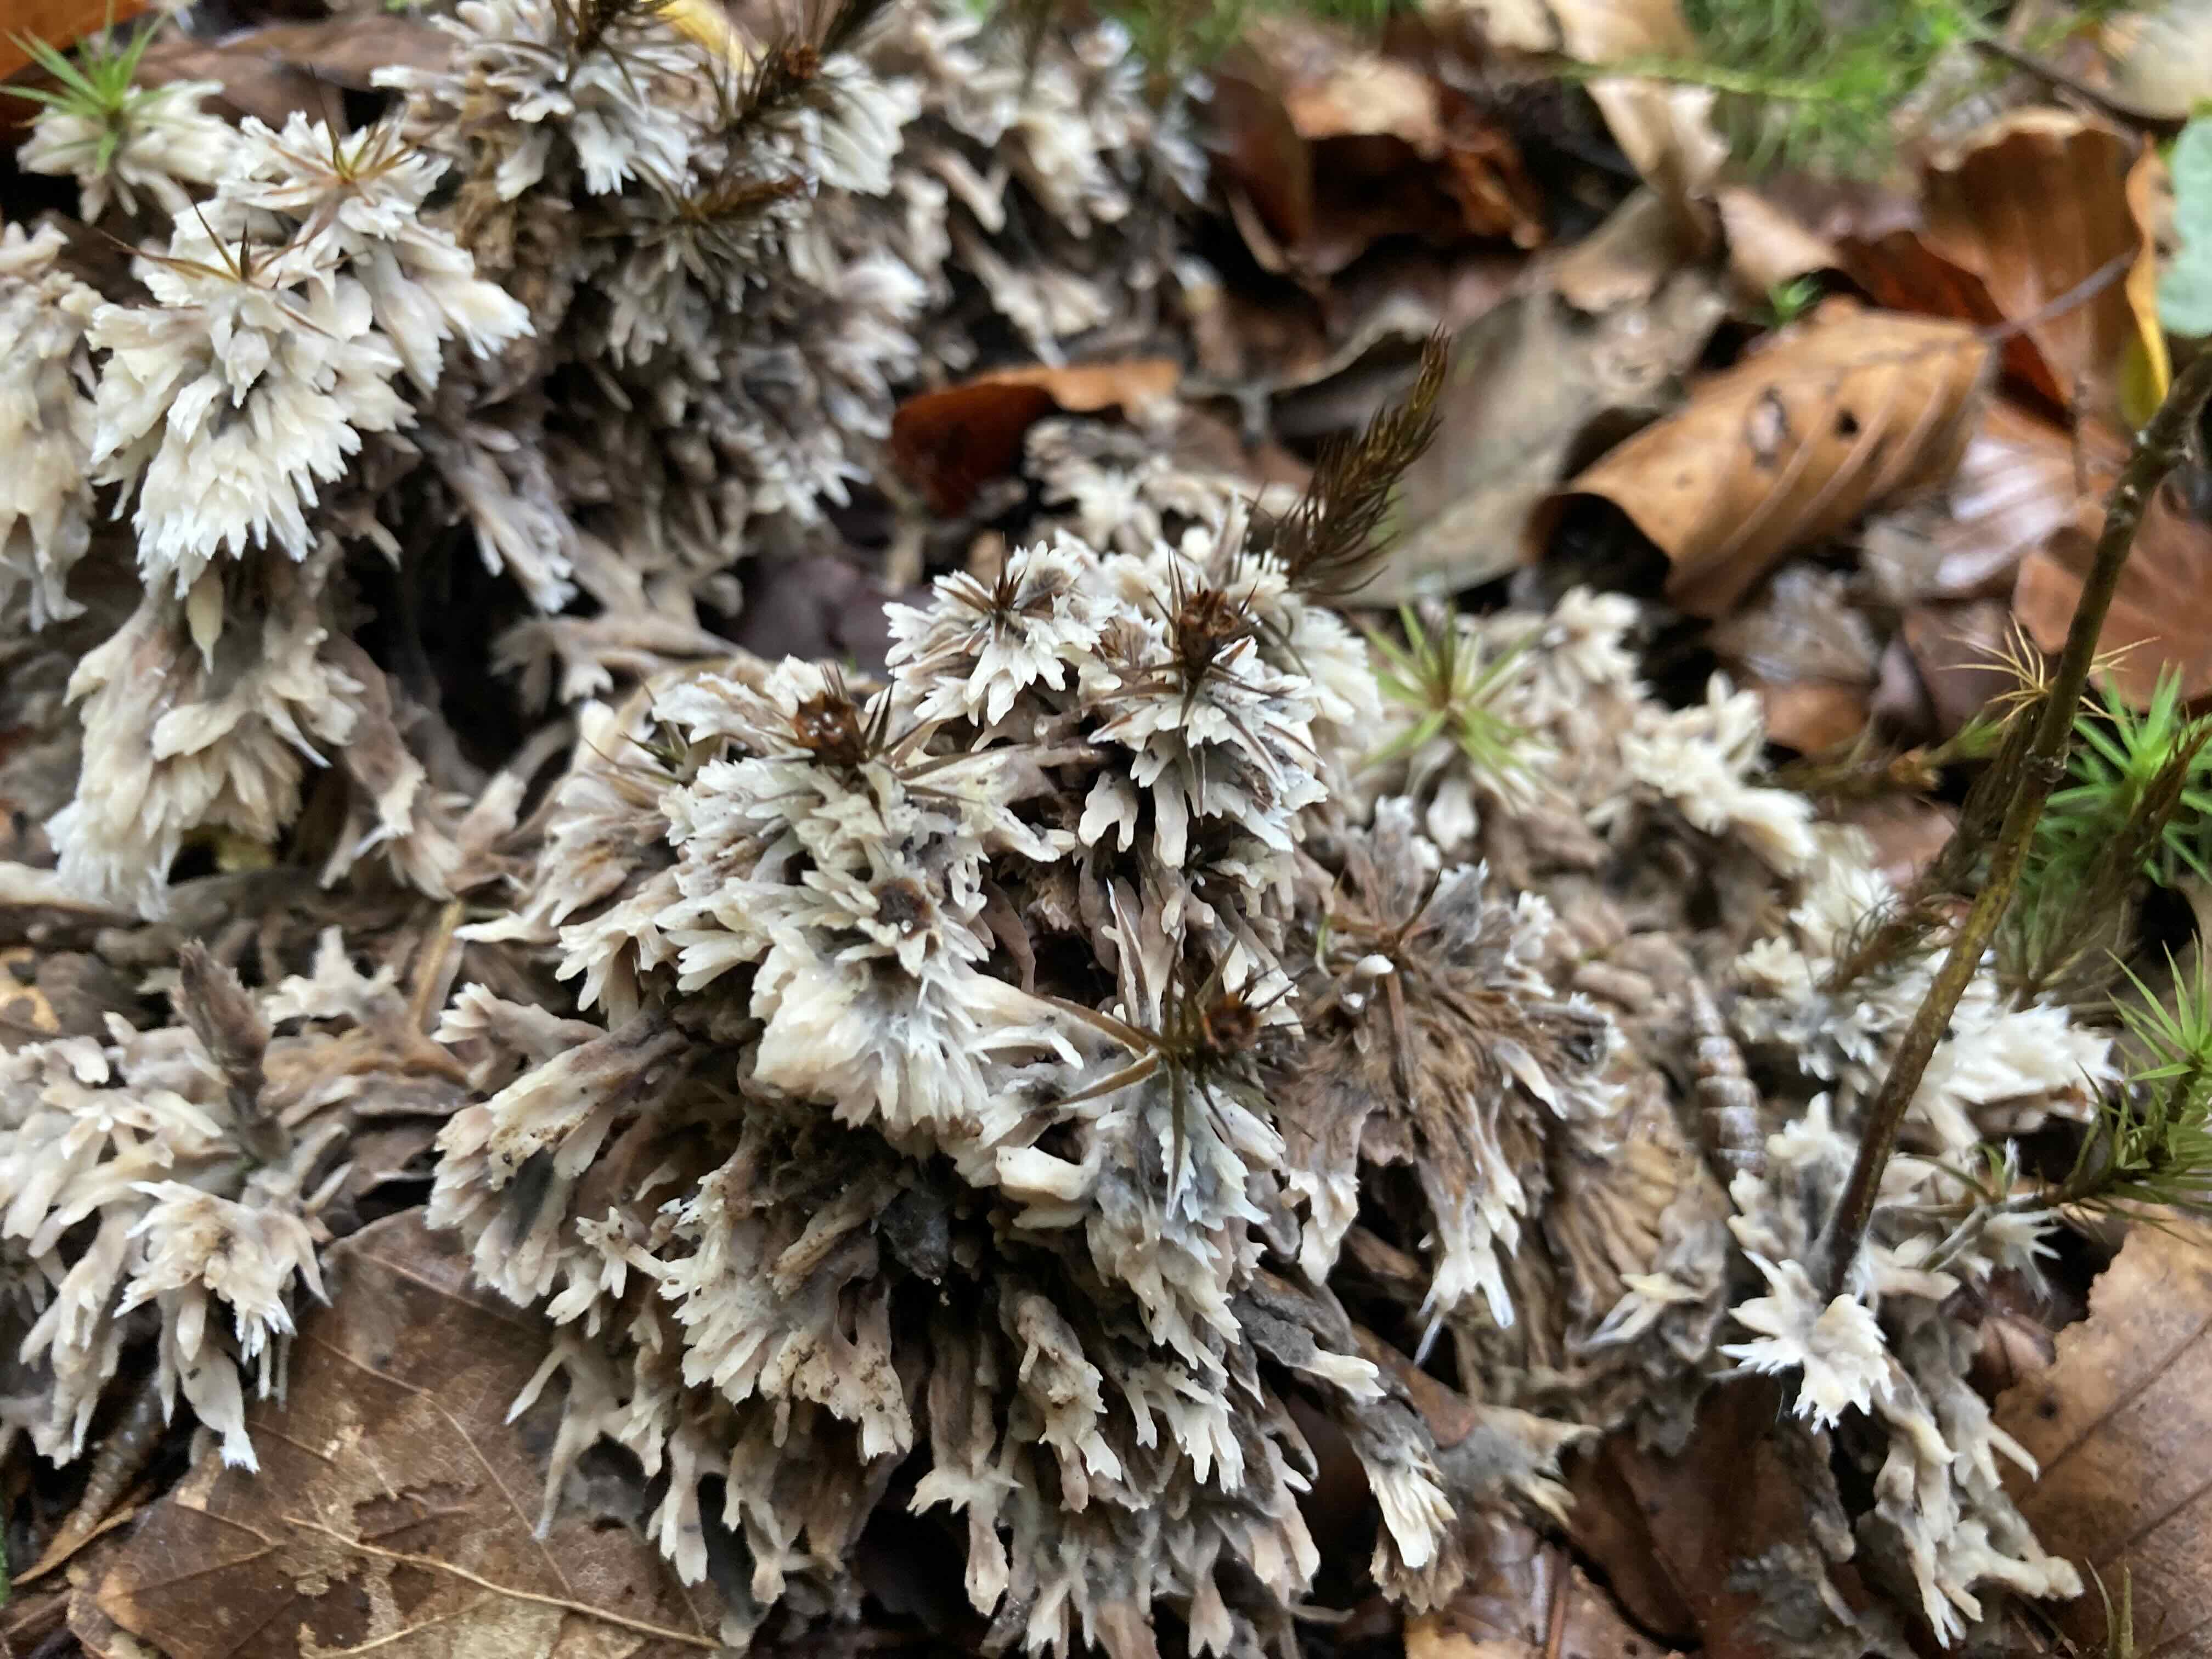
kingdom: Fungi
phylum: Basidiomycota
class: Agaricomycetes
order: Thelephorales
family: Thelephoraceae
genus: Thelephora
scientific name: Thelephora penicillata
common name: fladtrådt frynsesvamp
